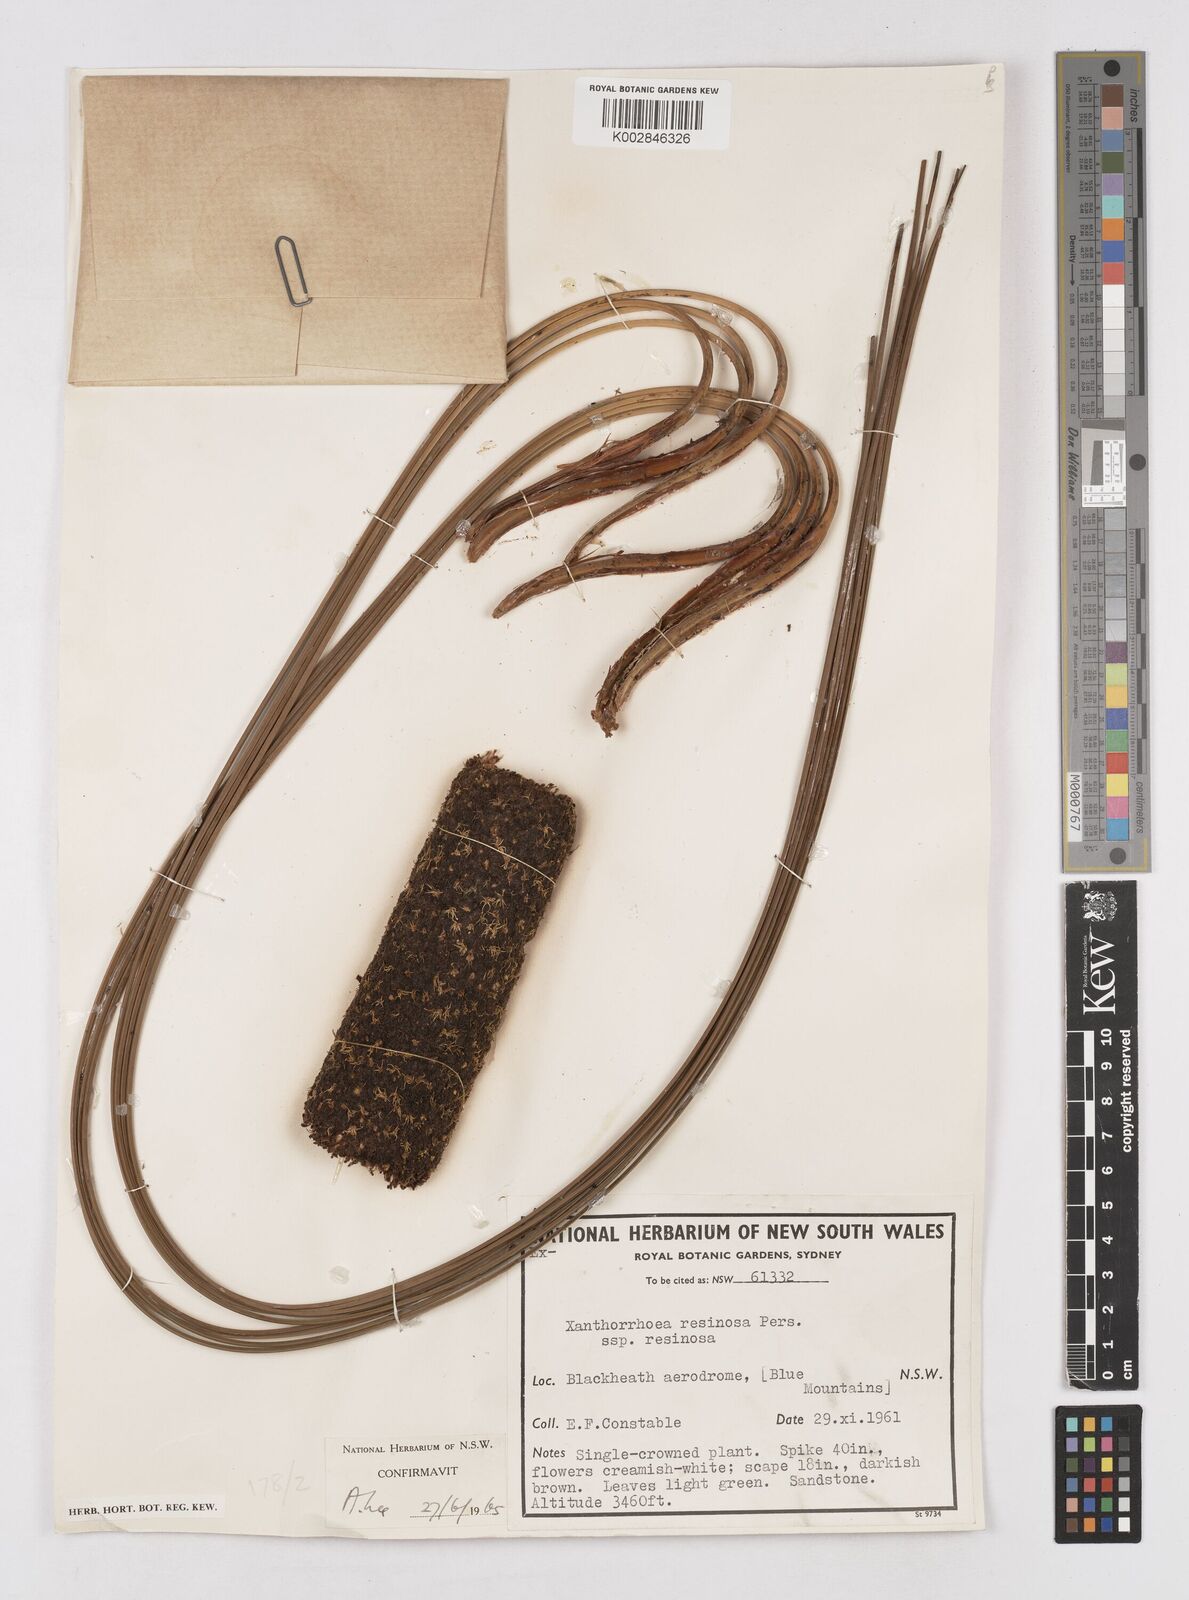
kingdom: Plantae
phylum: Tracheophyta
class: Liliopsida
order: Asparagales
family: Asphodelaceae
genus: Xanthorrhoea
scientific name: Xanthorrhoea
